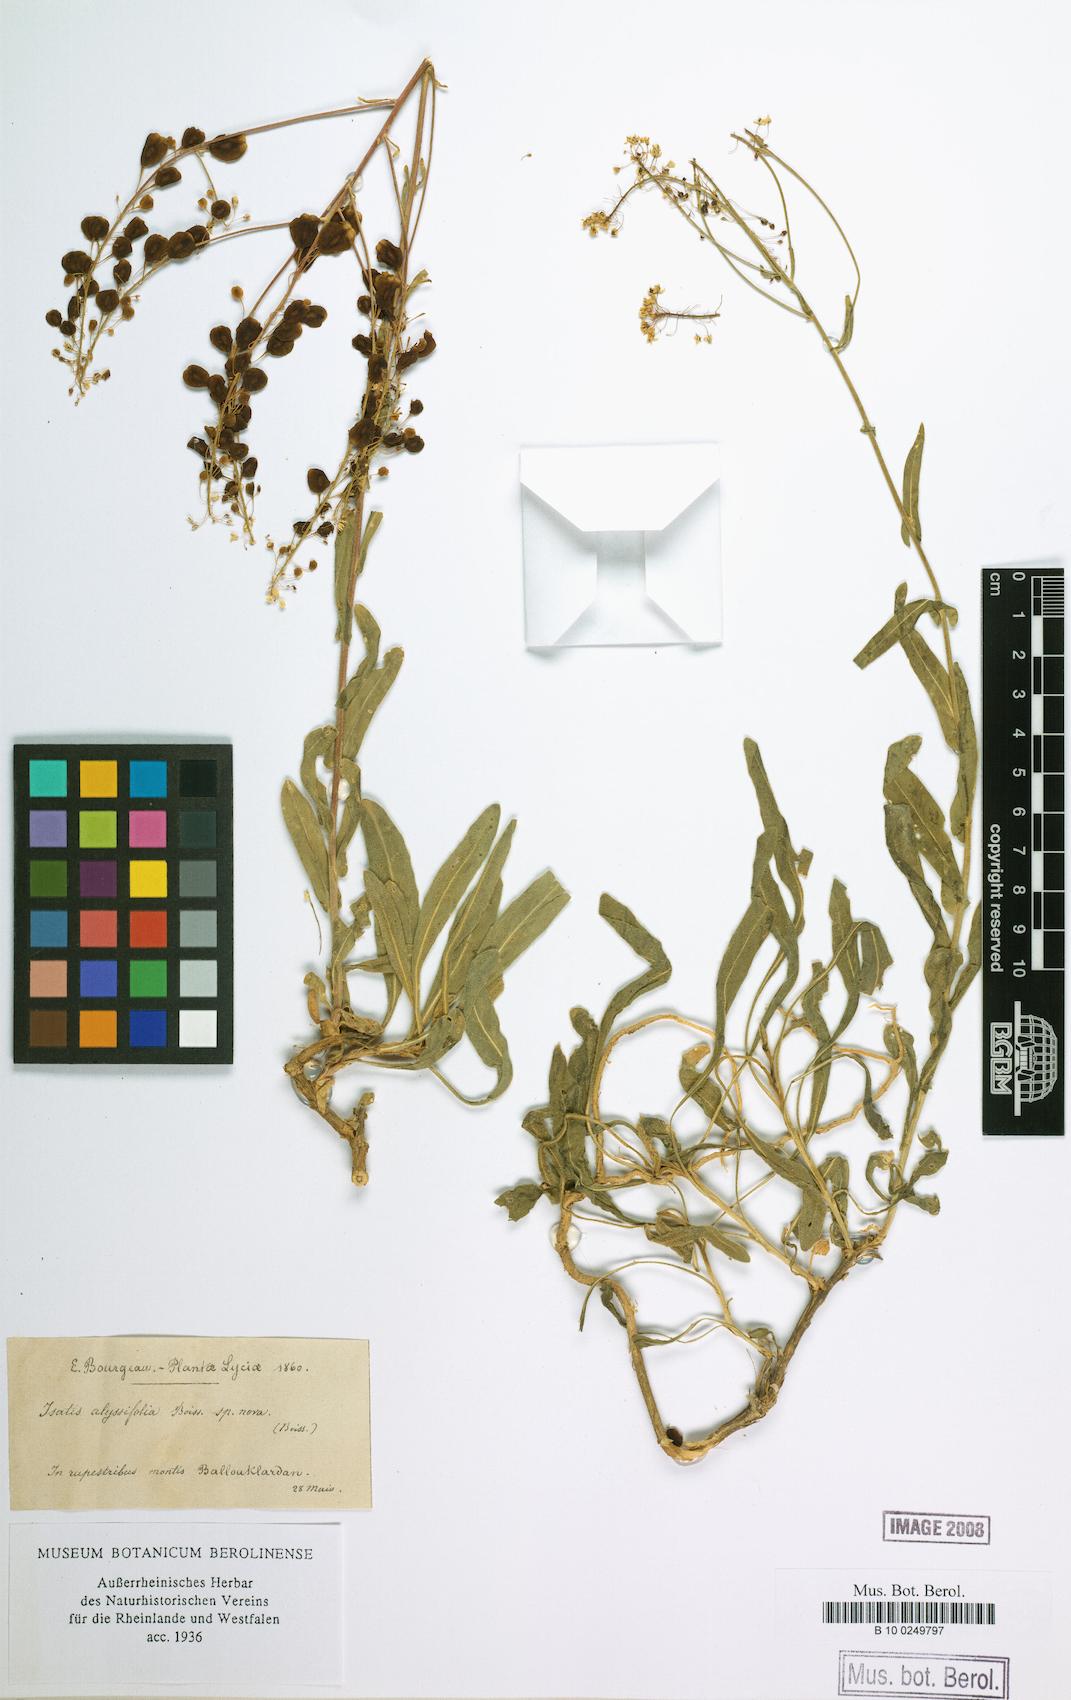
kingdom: Plantae
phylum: Tracheophyta
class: Magnoliopsida
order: Brassicales
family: Brassicaceae
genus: Isatis
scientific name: Isatis cappadocica
